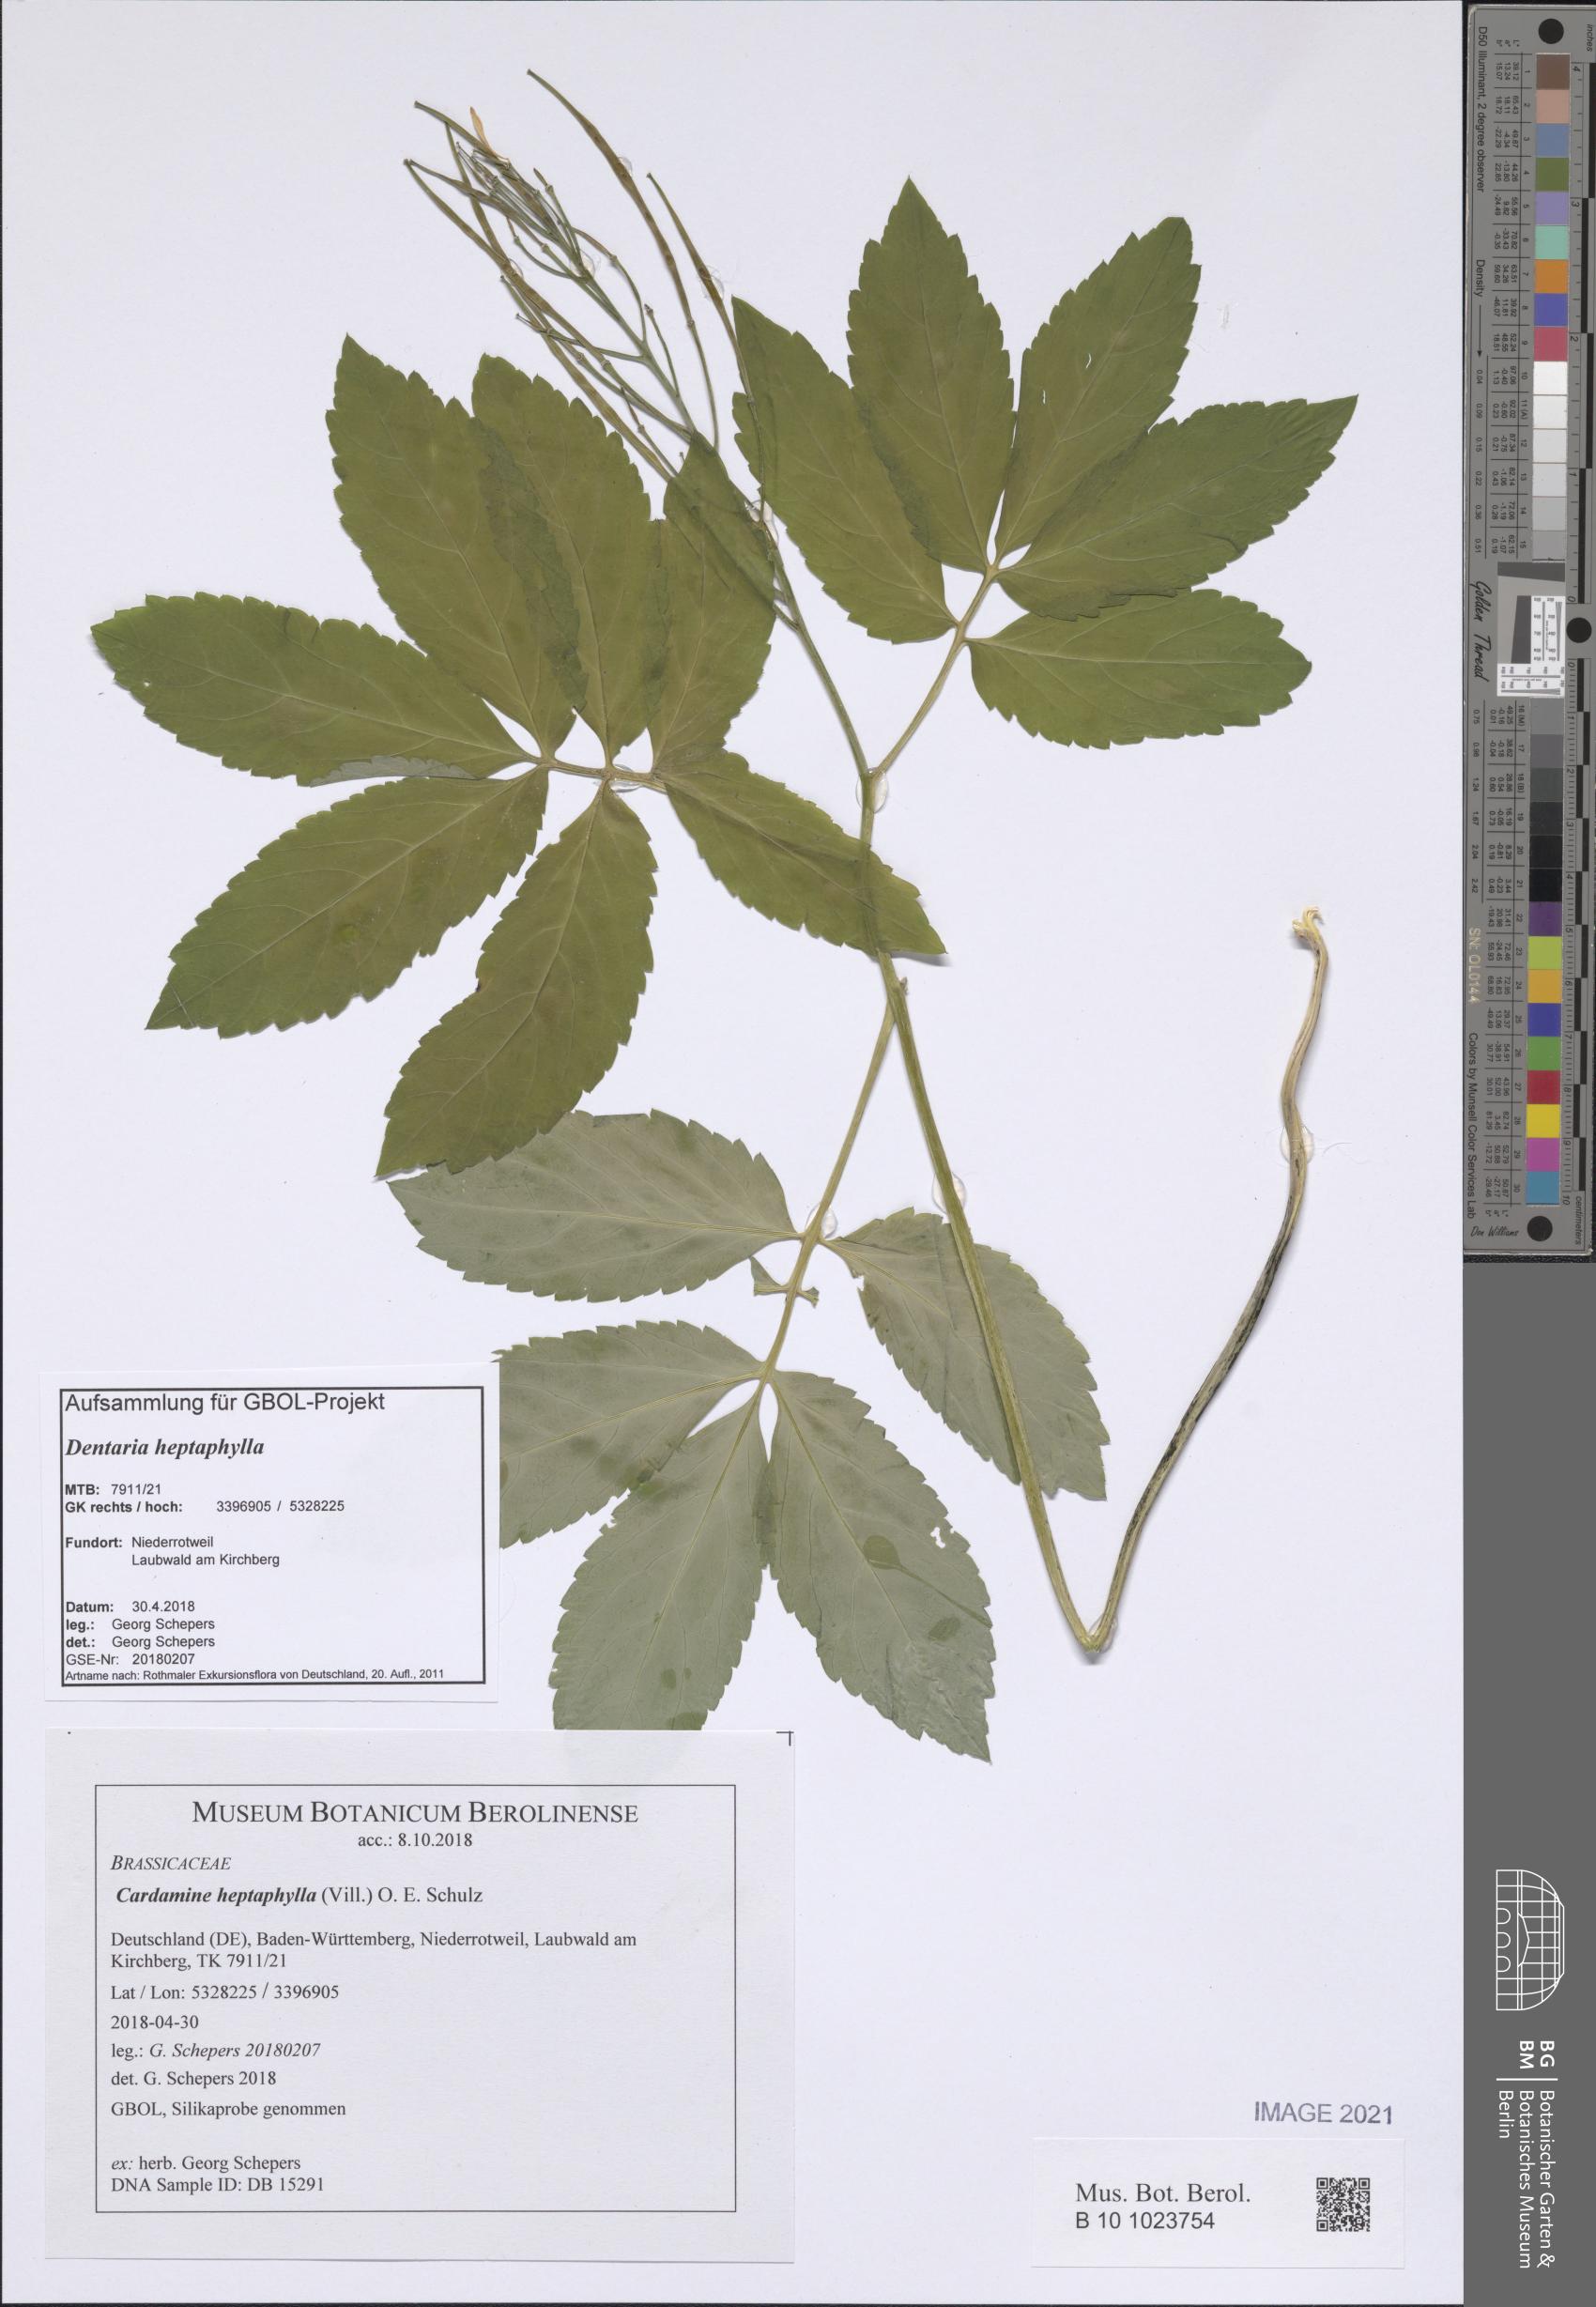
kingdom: Plantae
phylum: Tracheophyta
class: Magnoliopsida
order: Brassicales
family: Brassicaceae
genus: Cardamine
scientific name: Cardamine heptaphylla
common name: Pinnate coralroot
